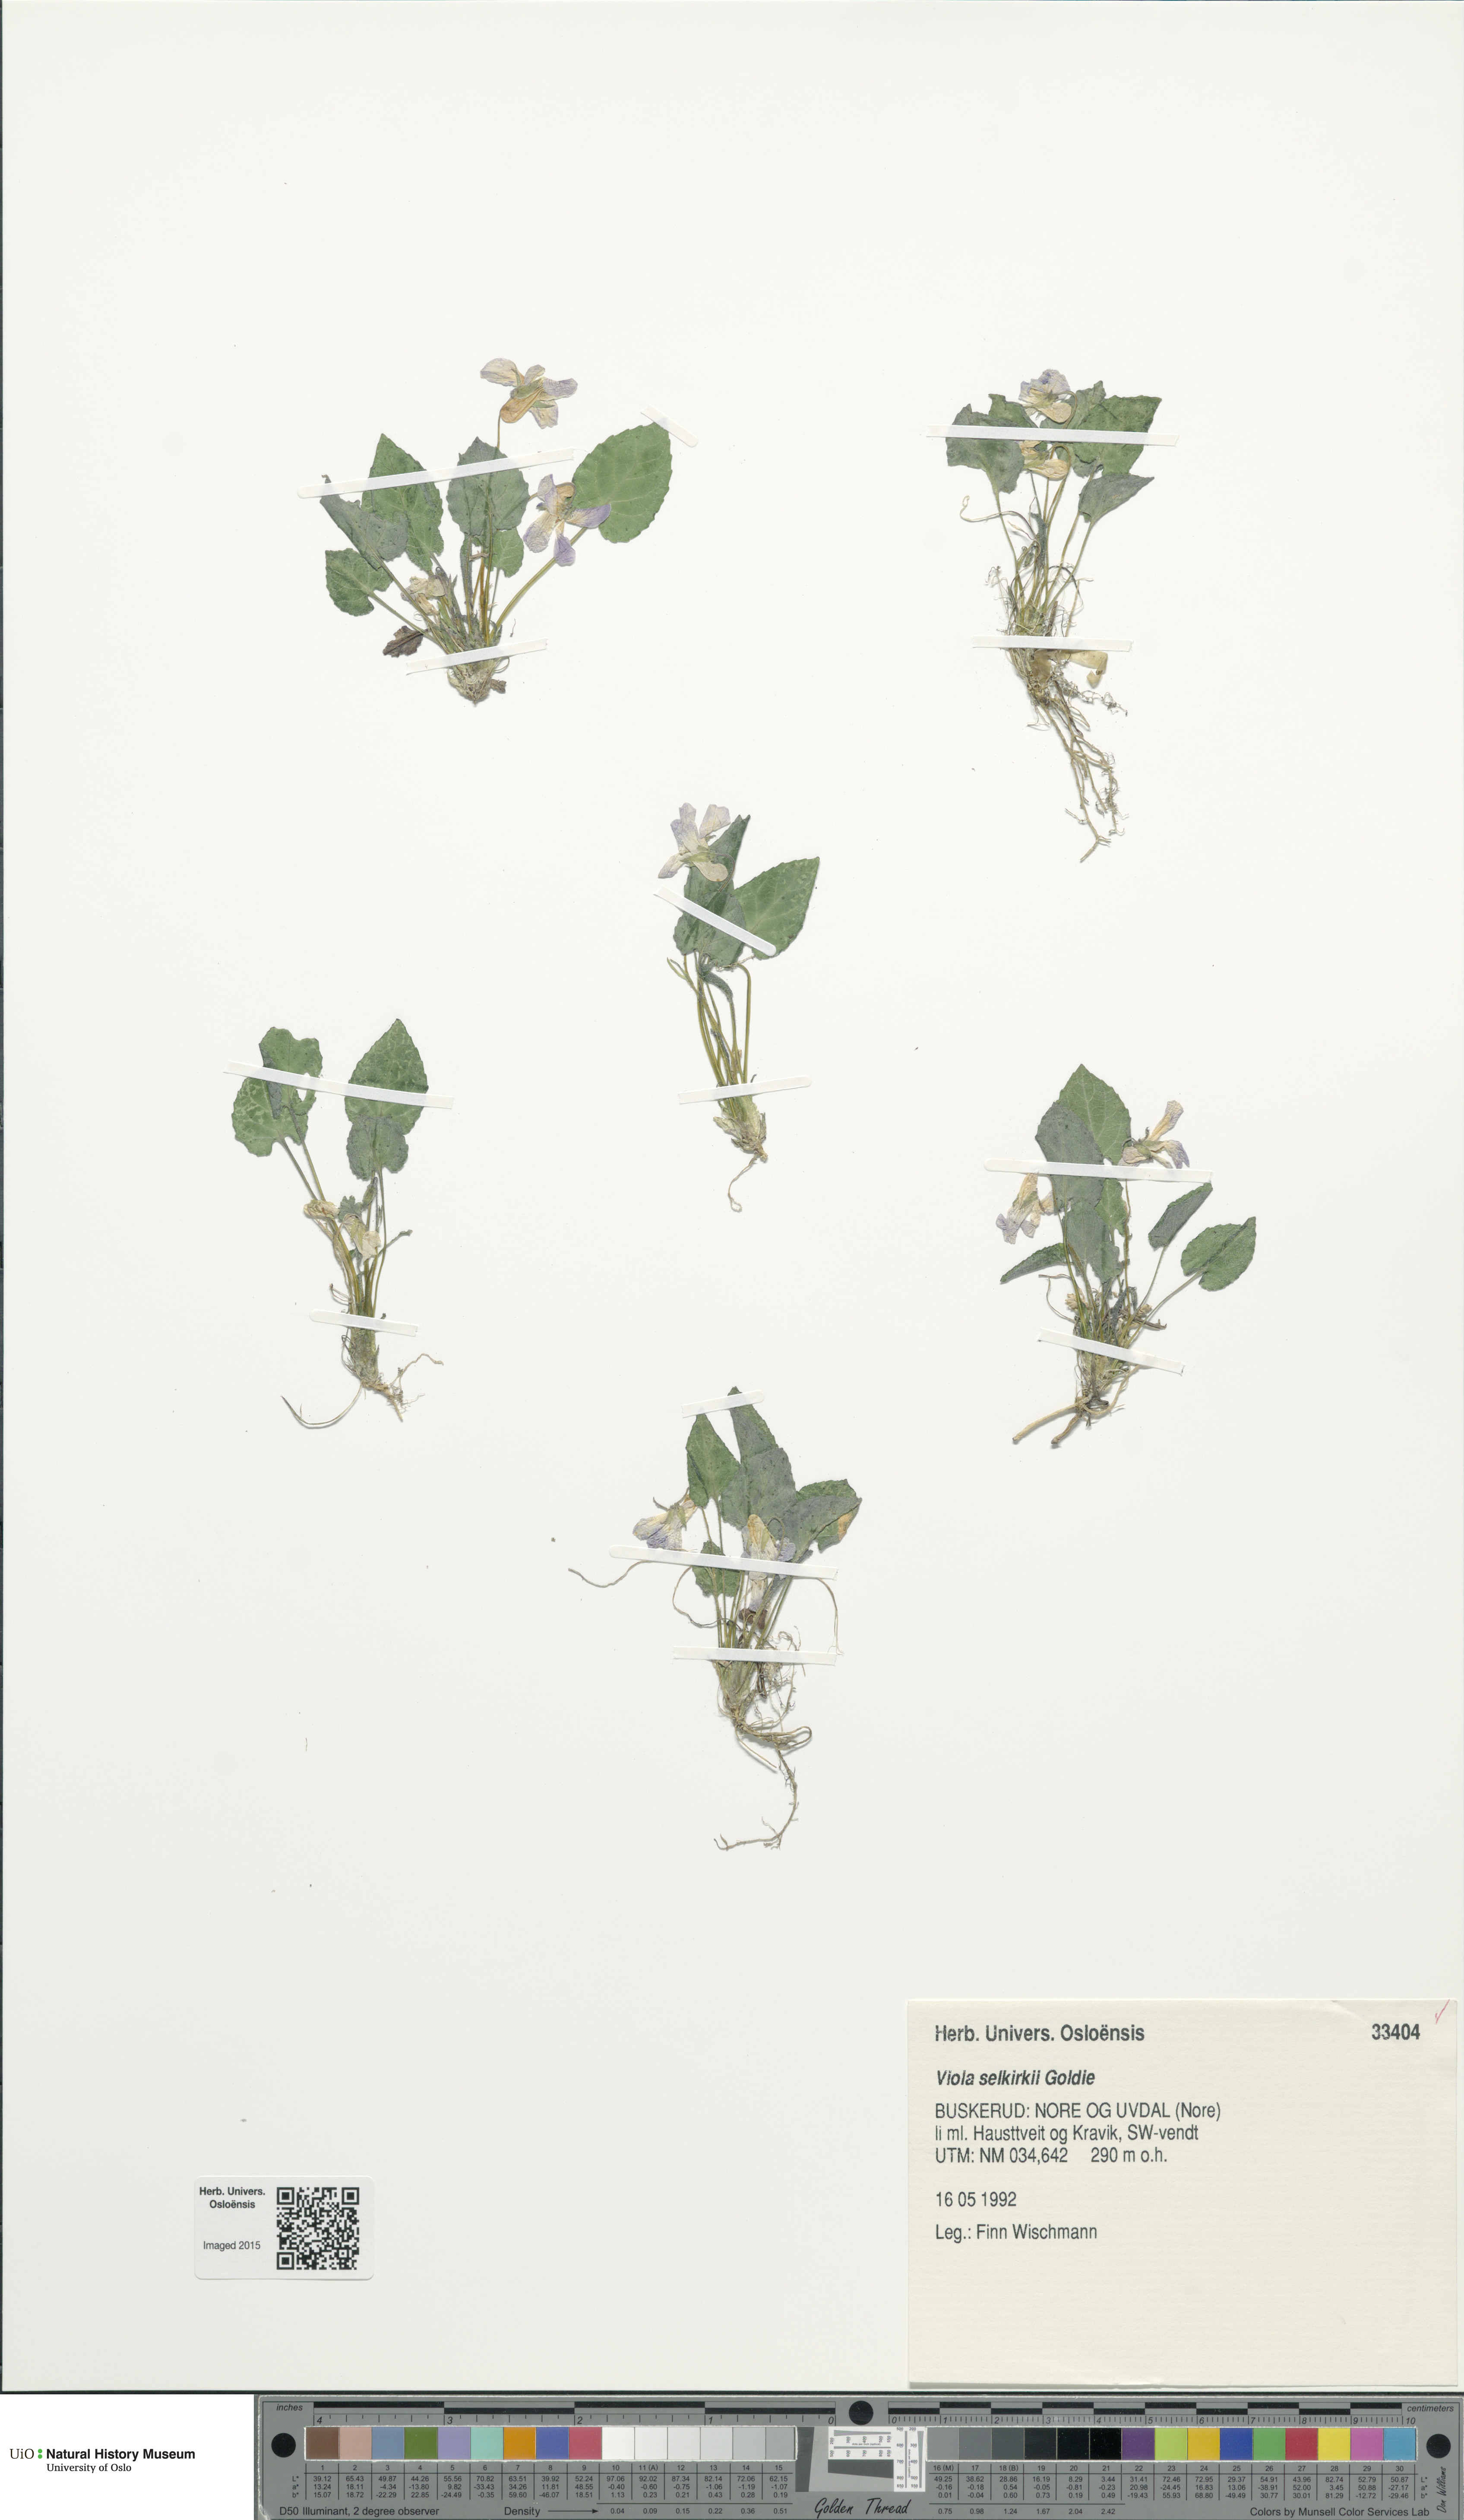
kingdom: Plantae
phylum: Tracheophyta
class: Magnoliopsida
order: Malpighiales
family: Violaceae
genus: Viola
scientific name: Viola selkirkii
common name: Selkirk's violet
